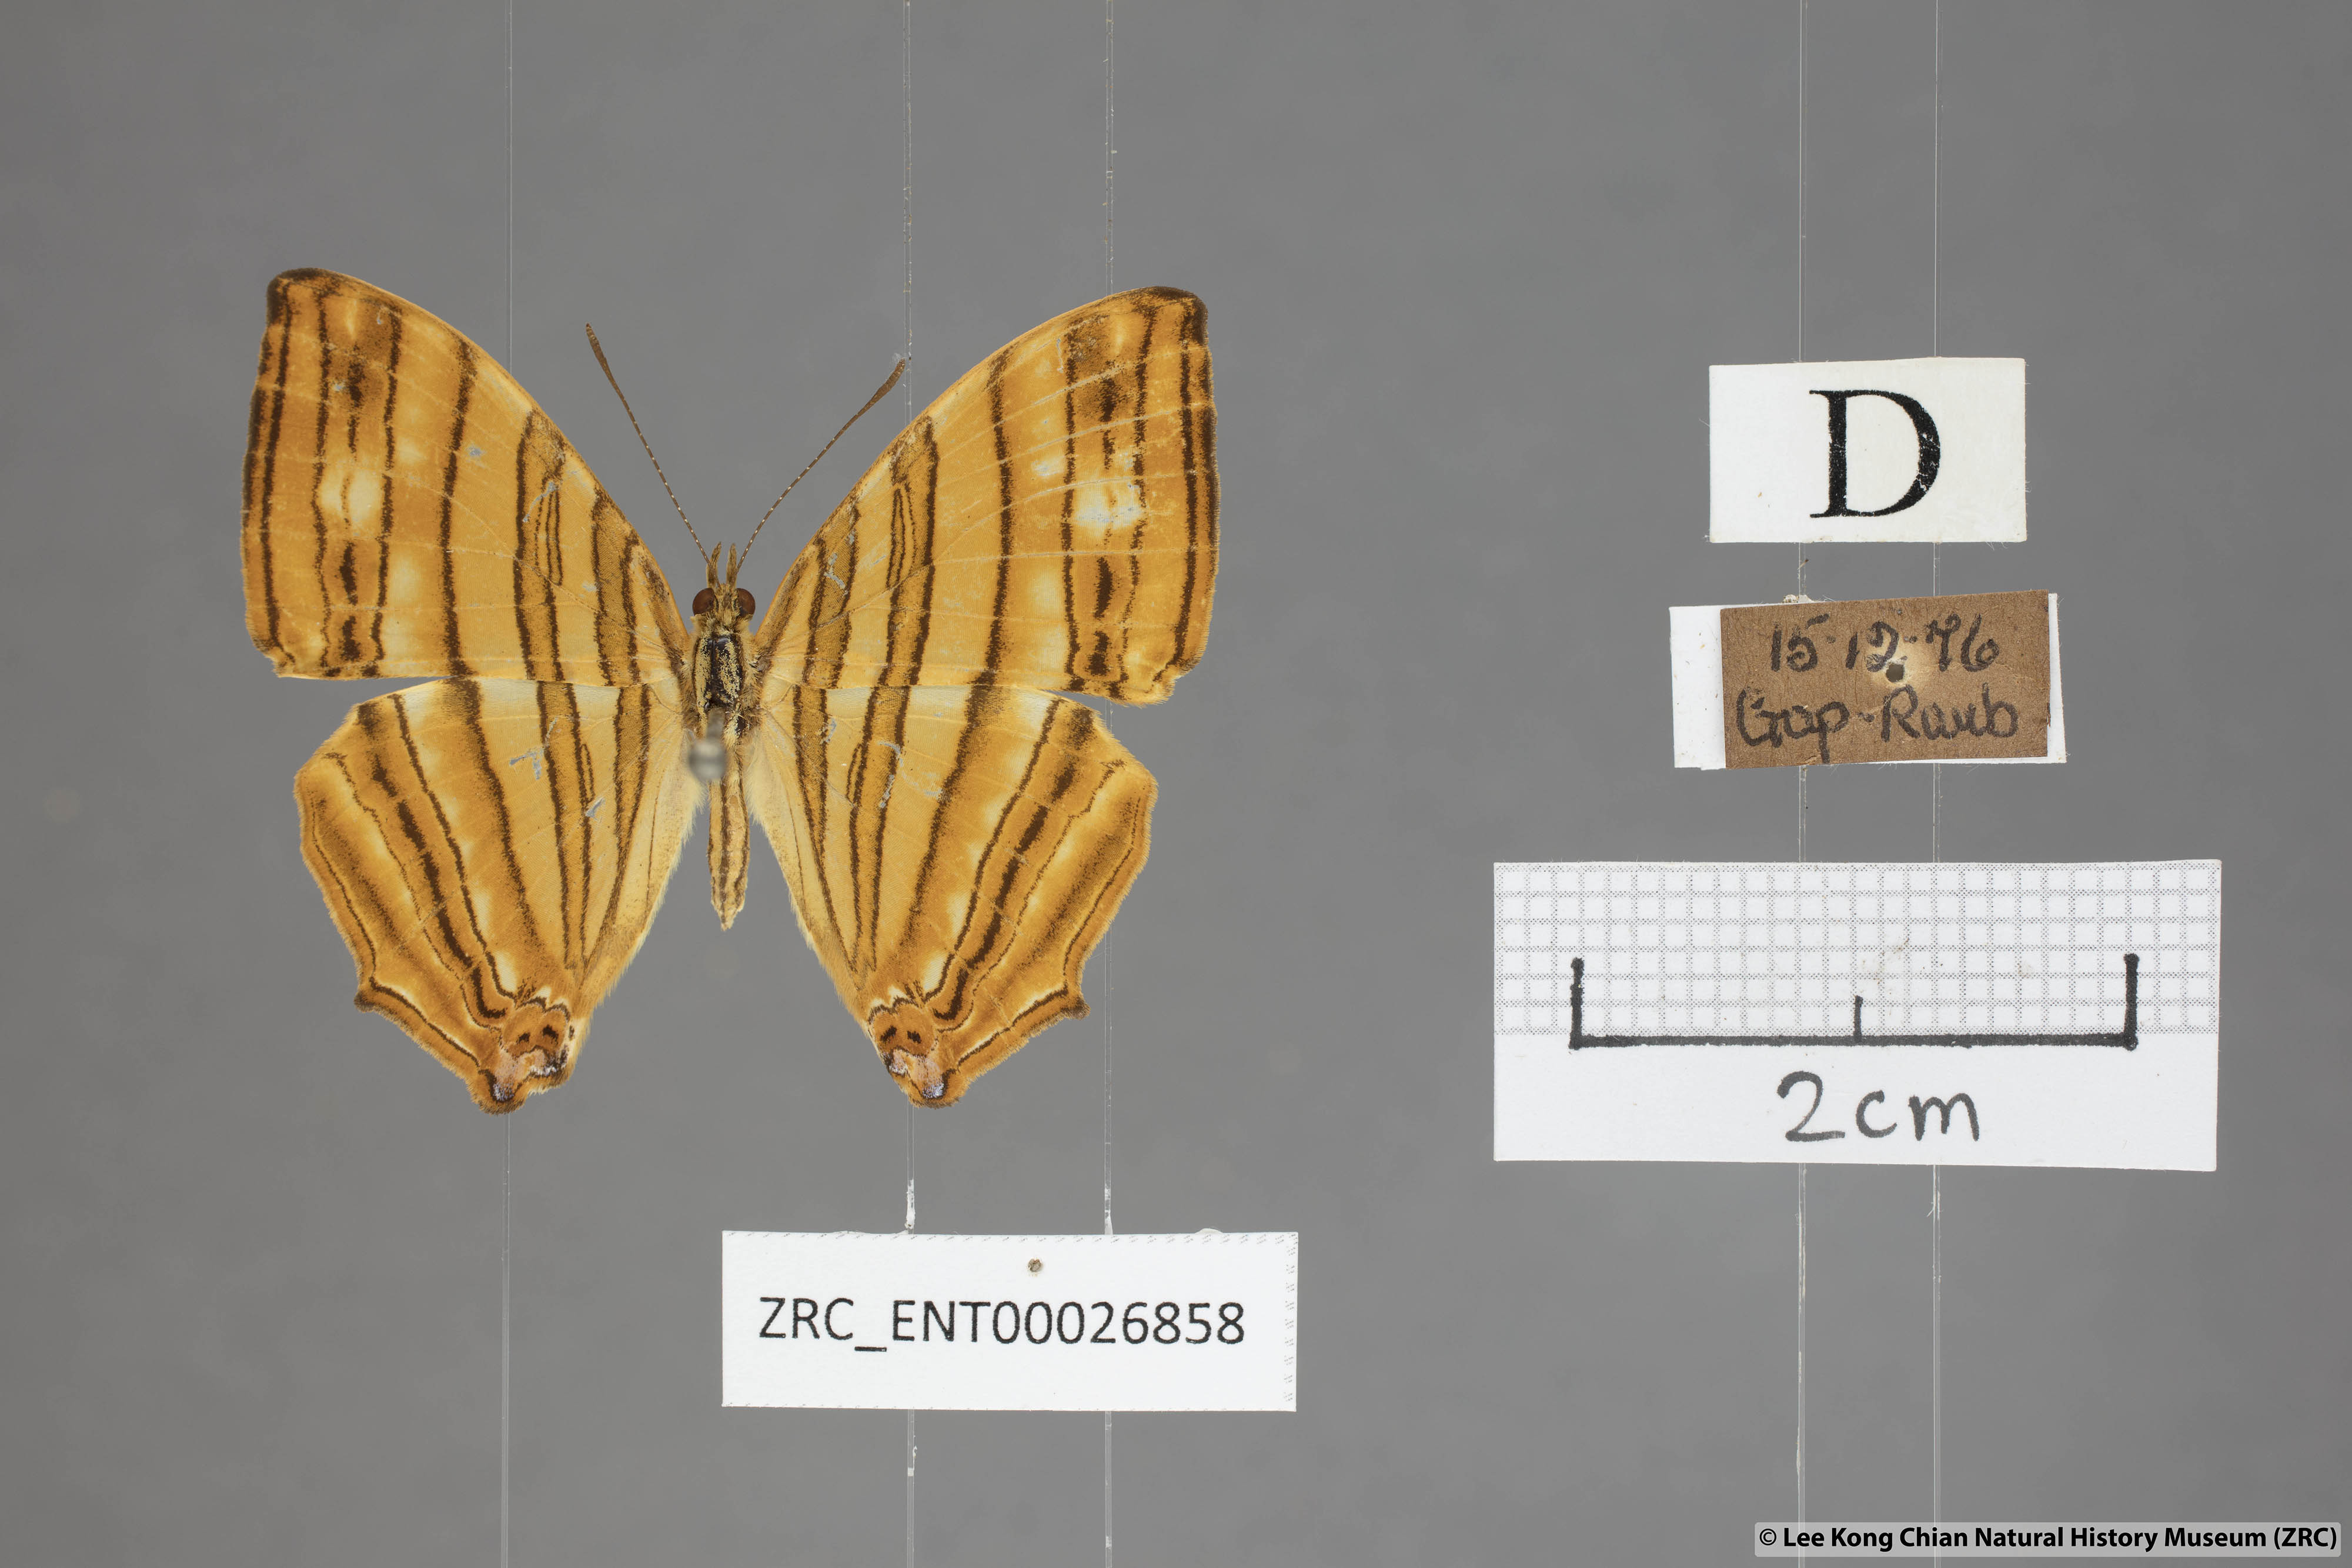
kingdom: Animalia
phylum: Arthropoda
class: Insecta
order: Lepidoptera
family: Nymphalidae
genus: Chersonesia
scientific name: Chersonesia risa
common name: Common maplet
